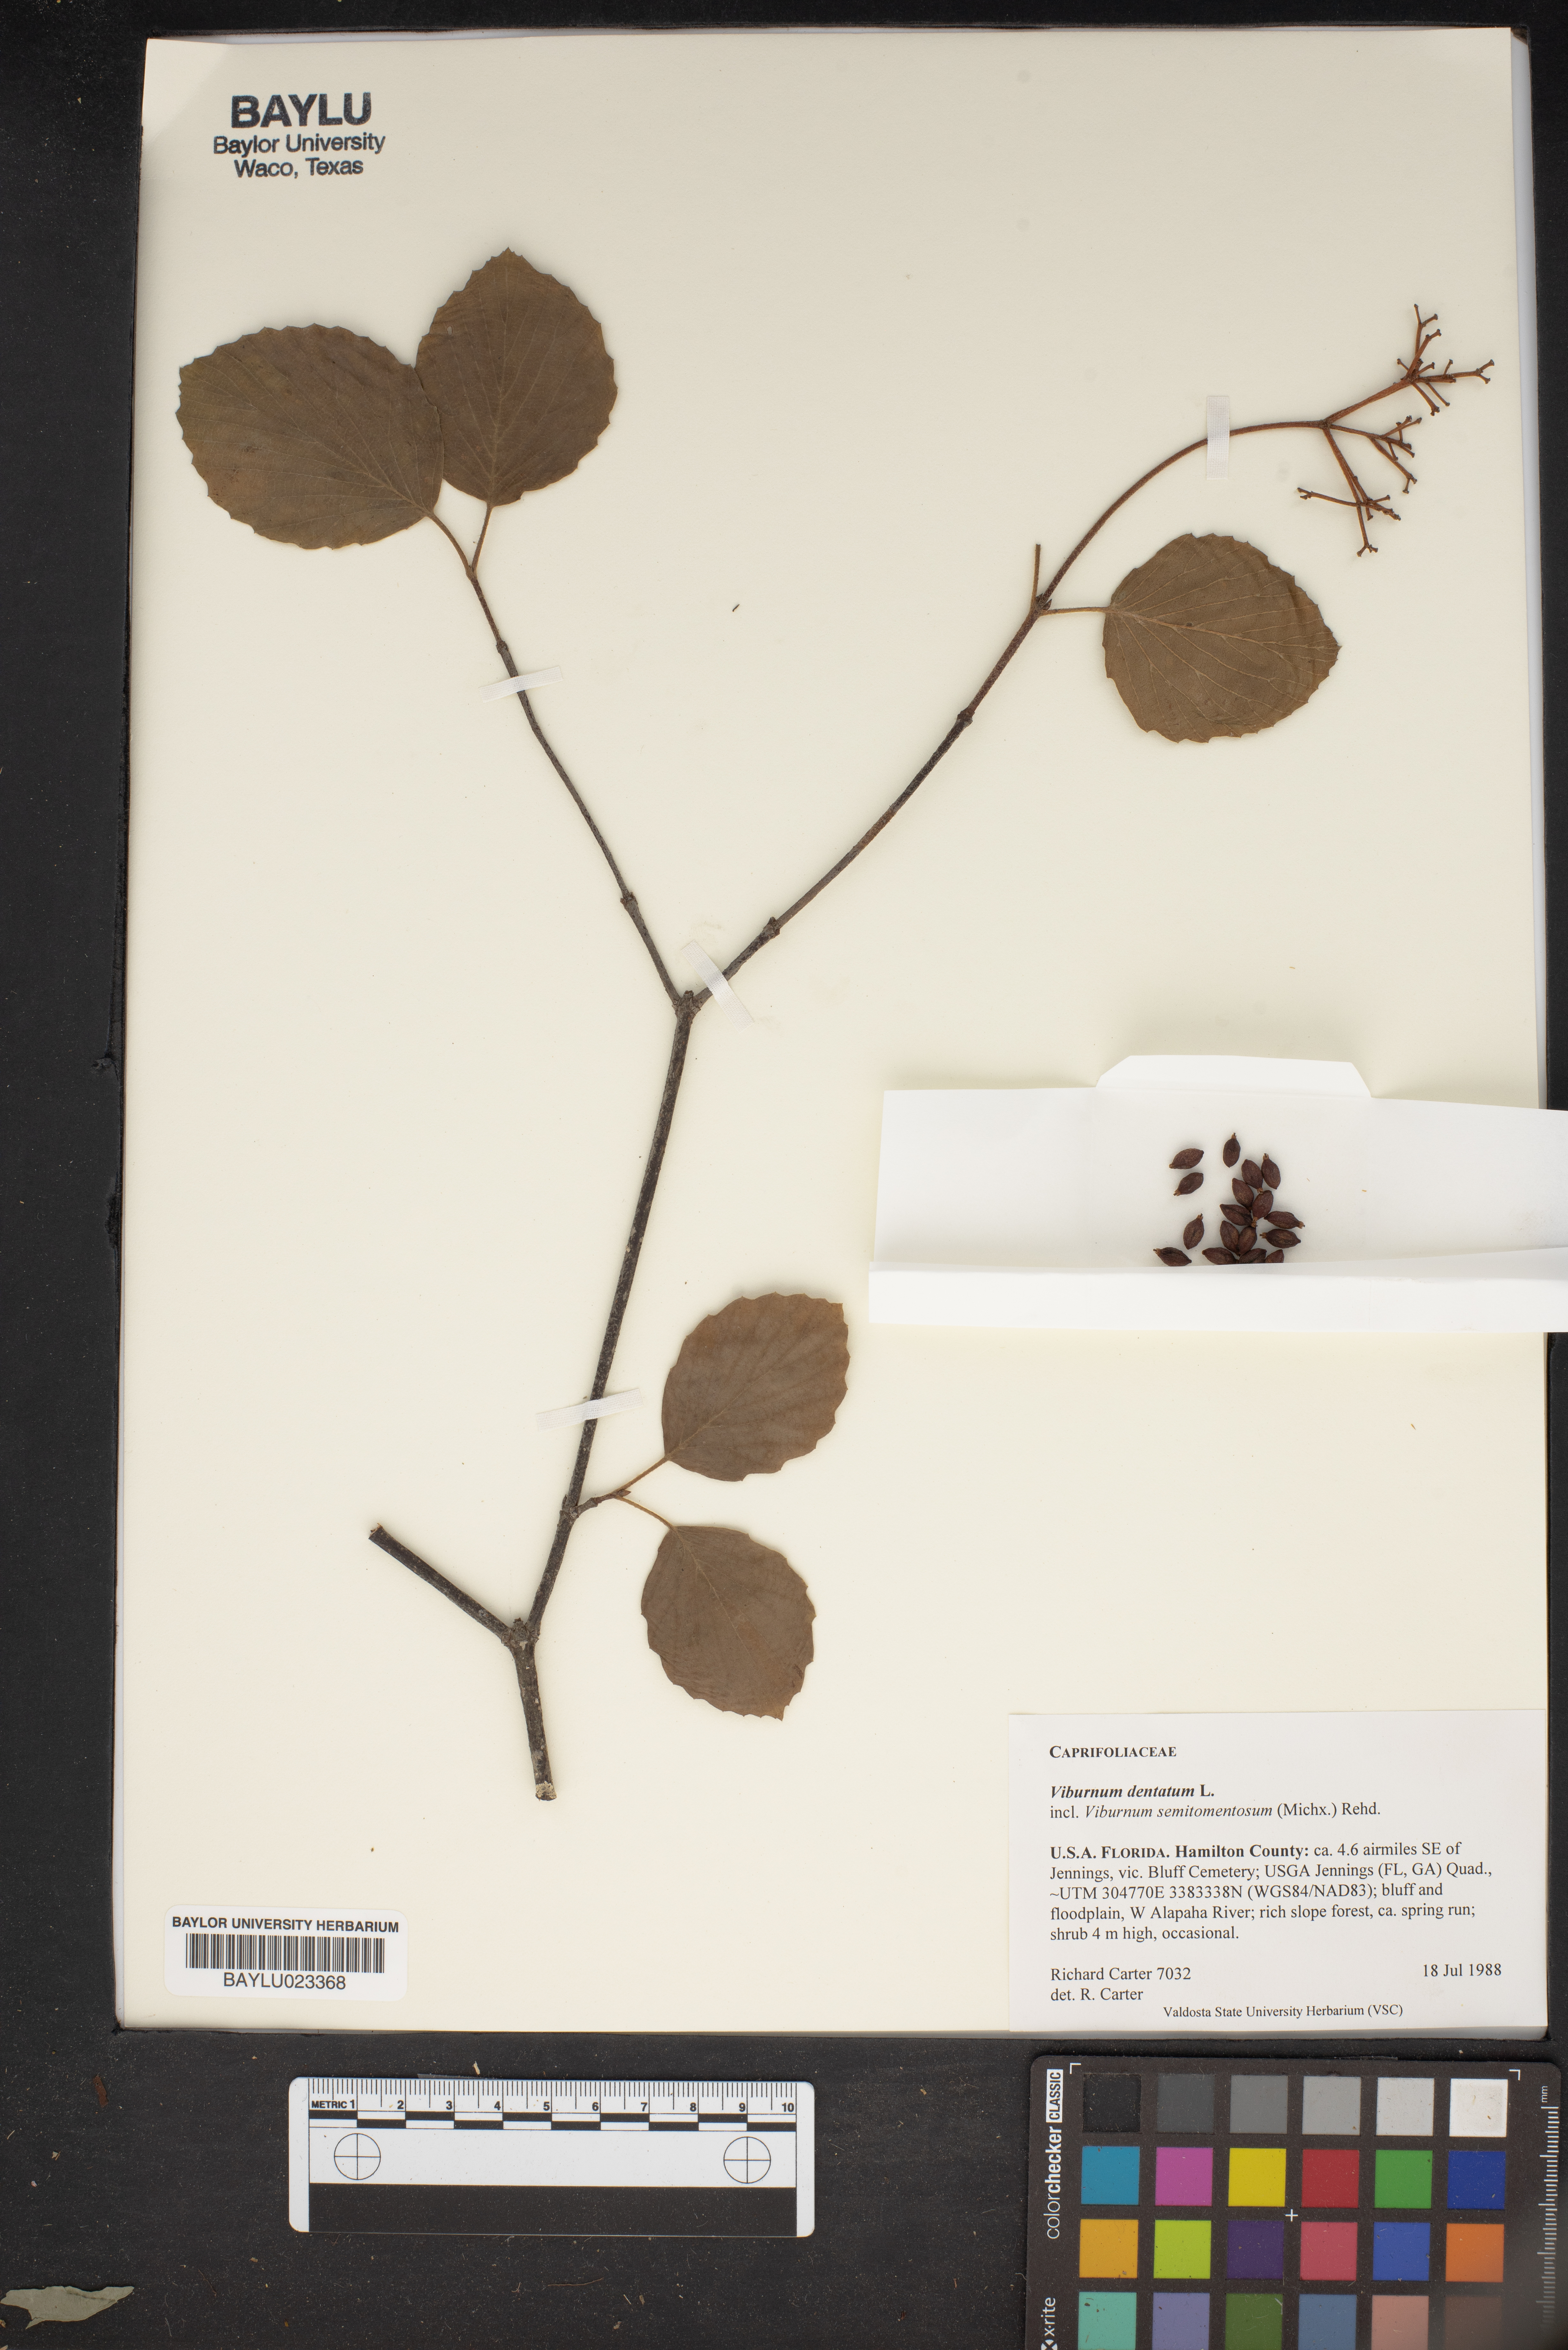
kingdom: Plantae
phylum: Tracheophyta
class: Magnoliopsida
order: Dipsacales
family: Viburnaceae
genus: Viburnum
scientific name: Viburnum dentatum
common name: Arrow-wood
